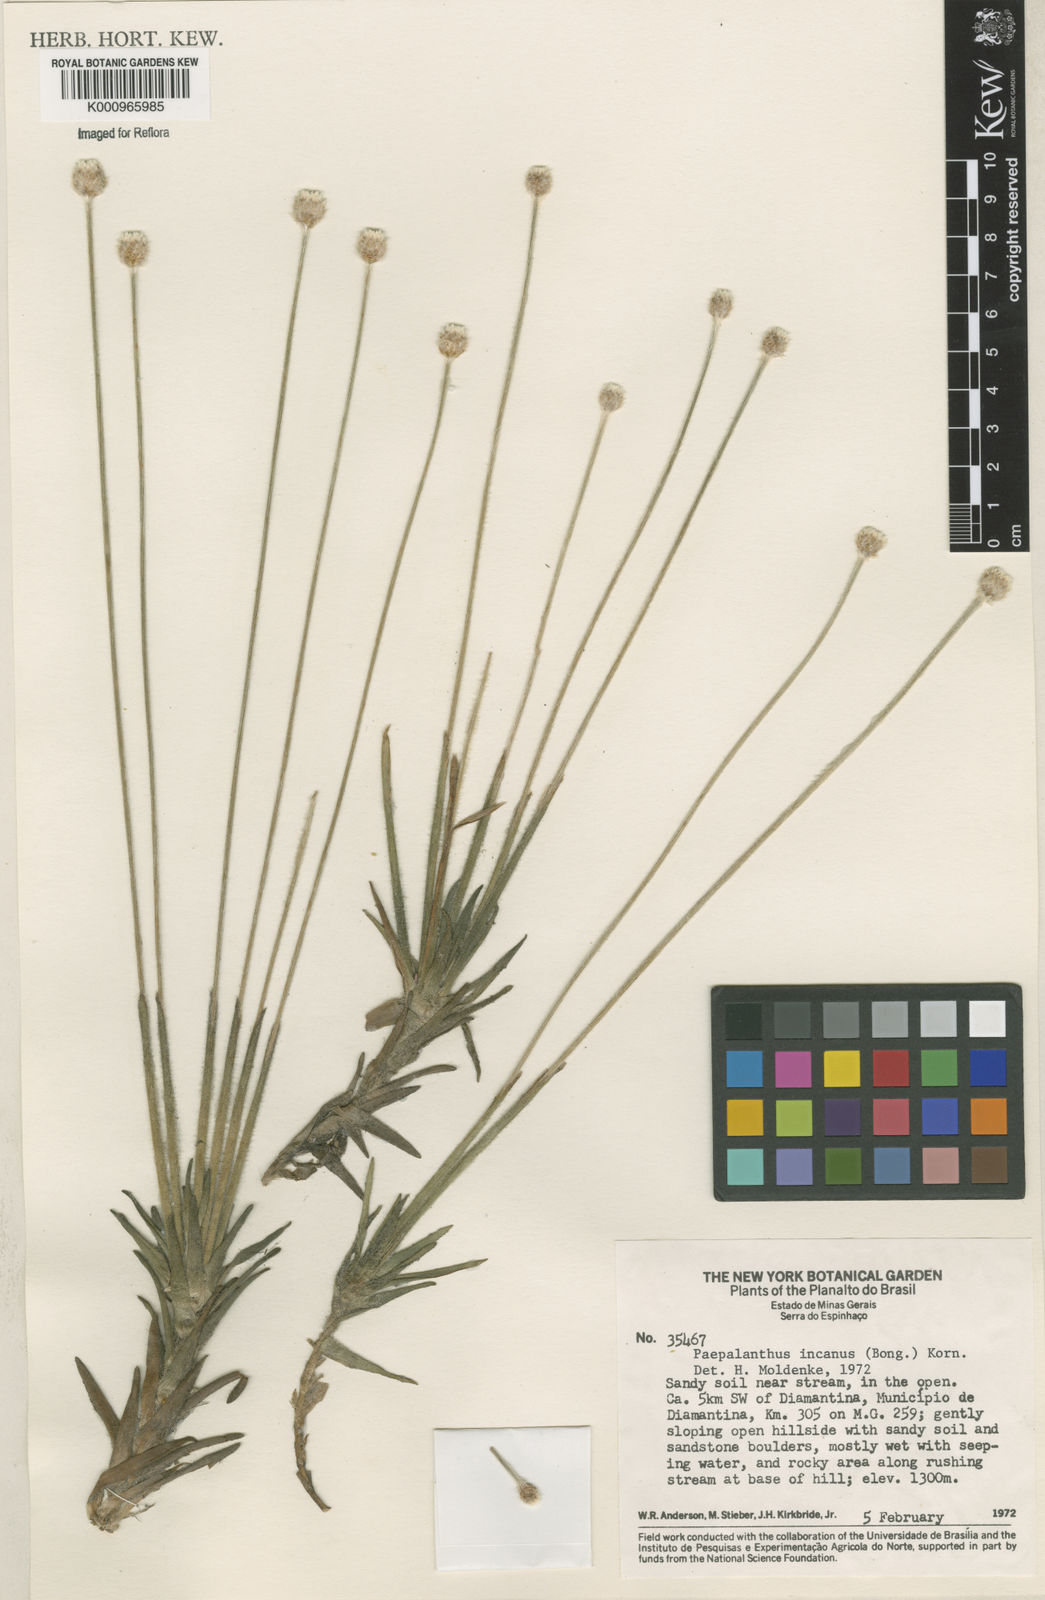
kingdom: Plantae
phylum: Tracheophyta
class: Liliopsida
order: Poales
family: Eriocaulaceae
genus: Paepalanthus
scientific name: Paepalanthus
